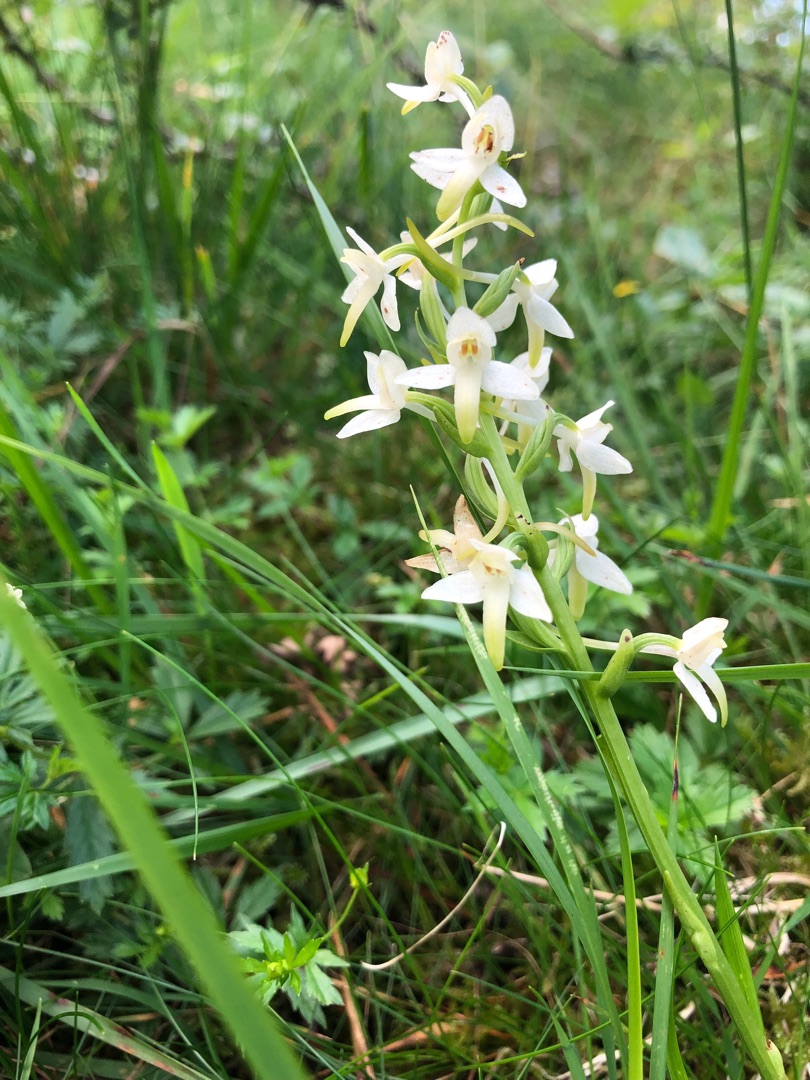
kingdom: Plantae
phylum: Tracheophyta
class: Liliopsida
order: Asparagales
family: Orchidaceae
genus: Platanthera
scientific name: Platanthera bifolia
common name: Bakke-gøgelilje
